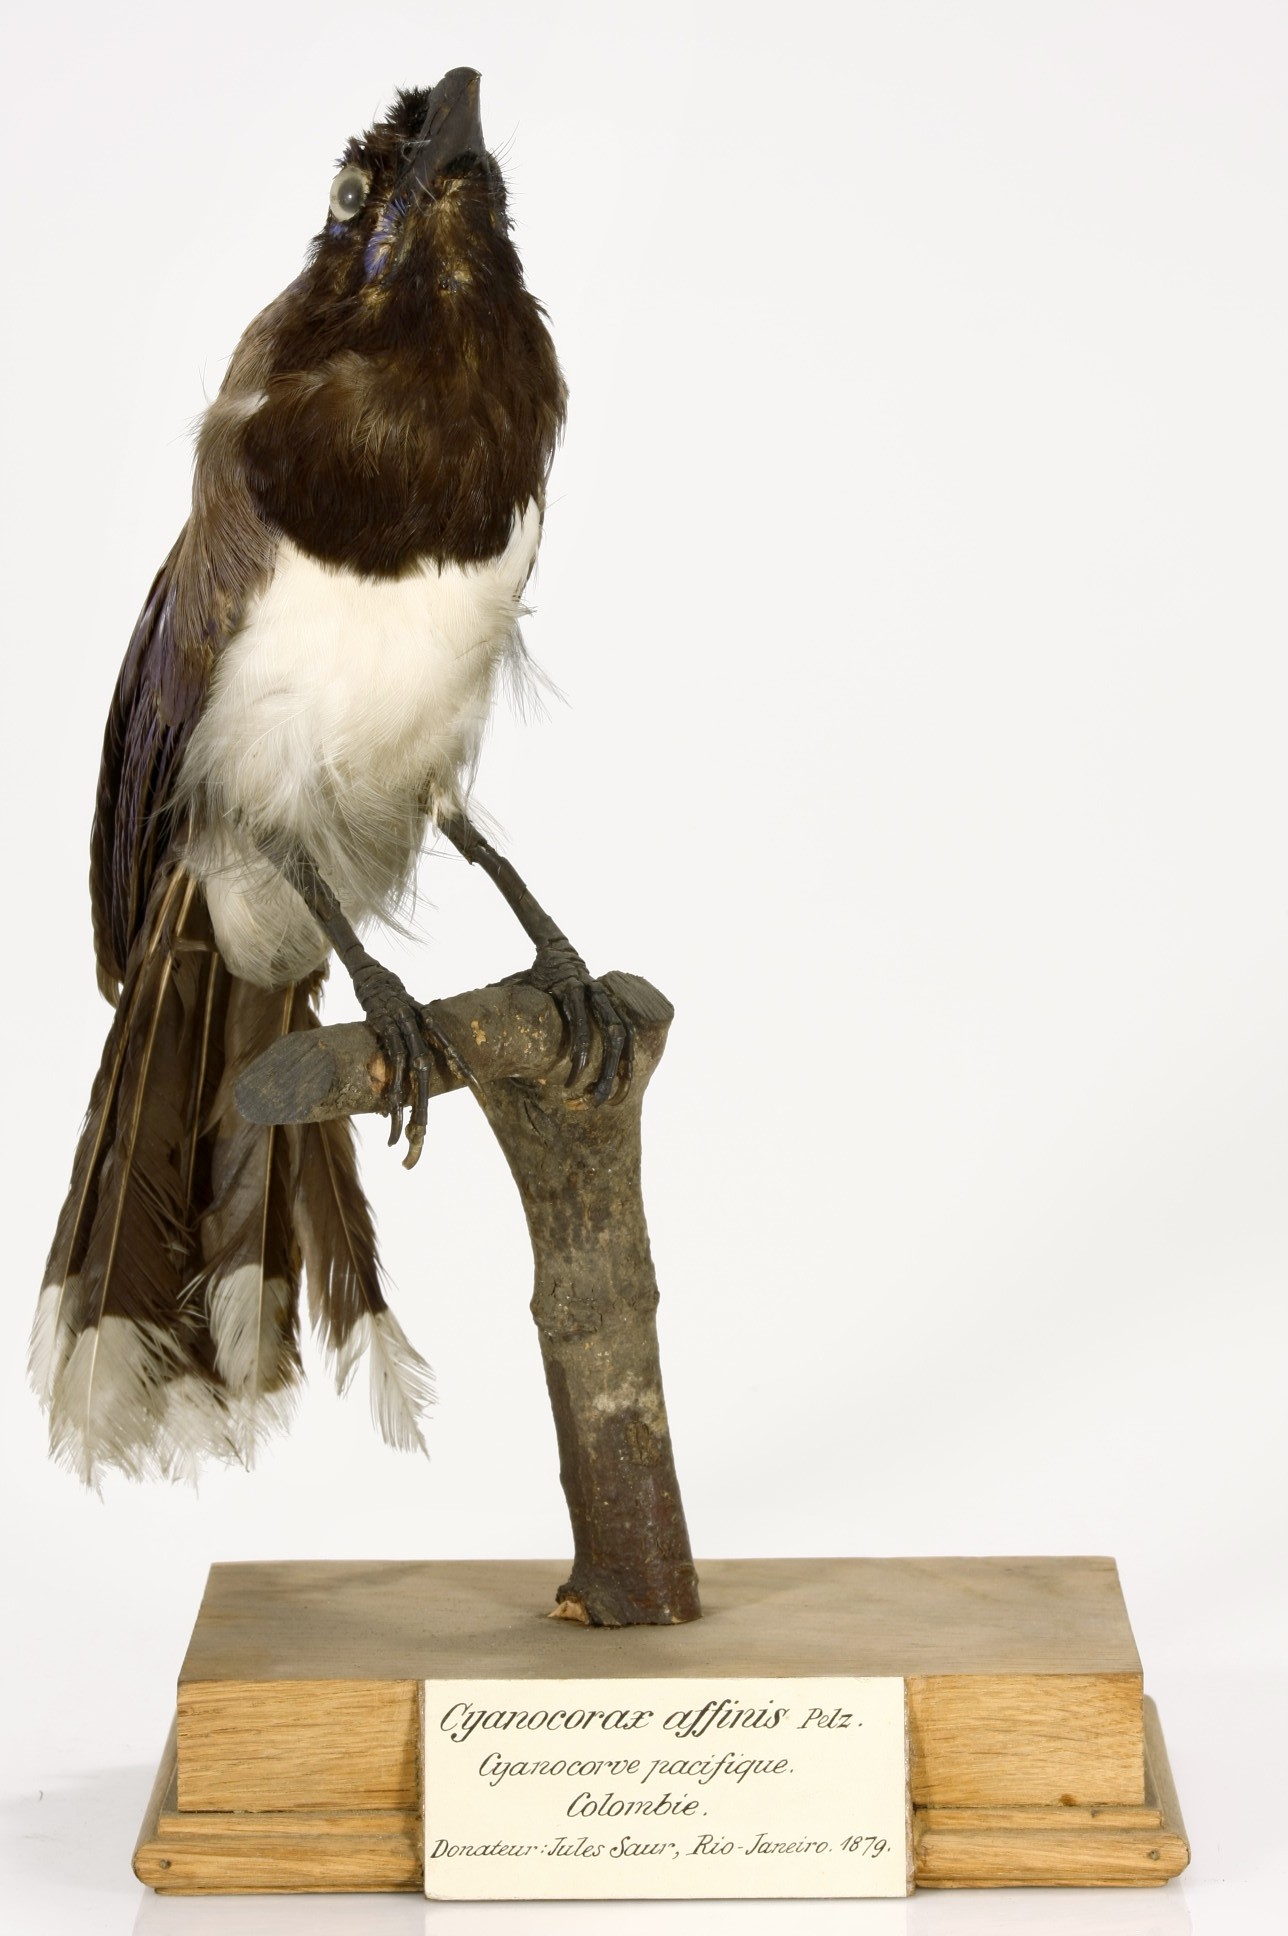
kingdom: Animalia
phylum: Chordata
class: Aves
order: Passeriformes
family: Corvidae
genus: Cyanocorax
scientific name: Cyanocorax affinis
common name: Black-chested jay
